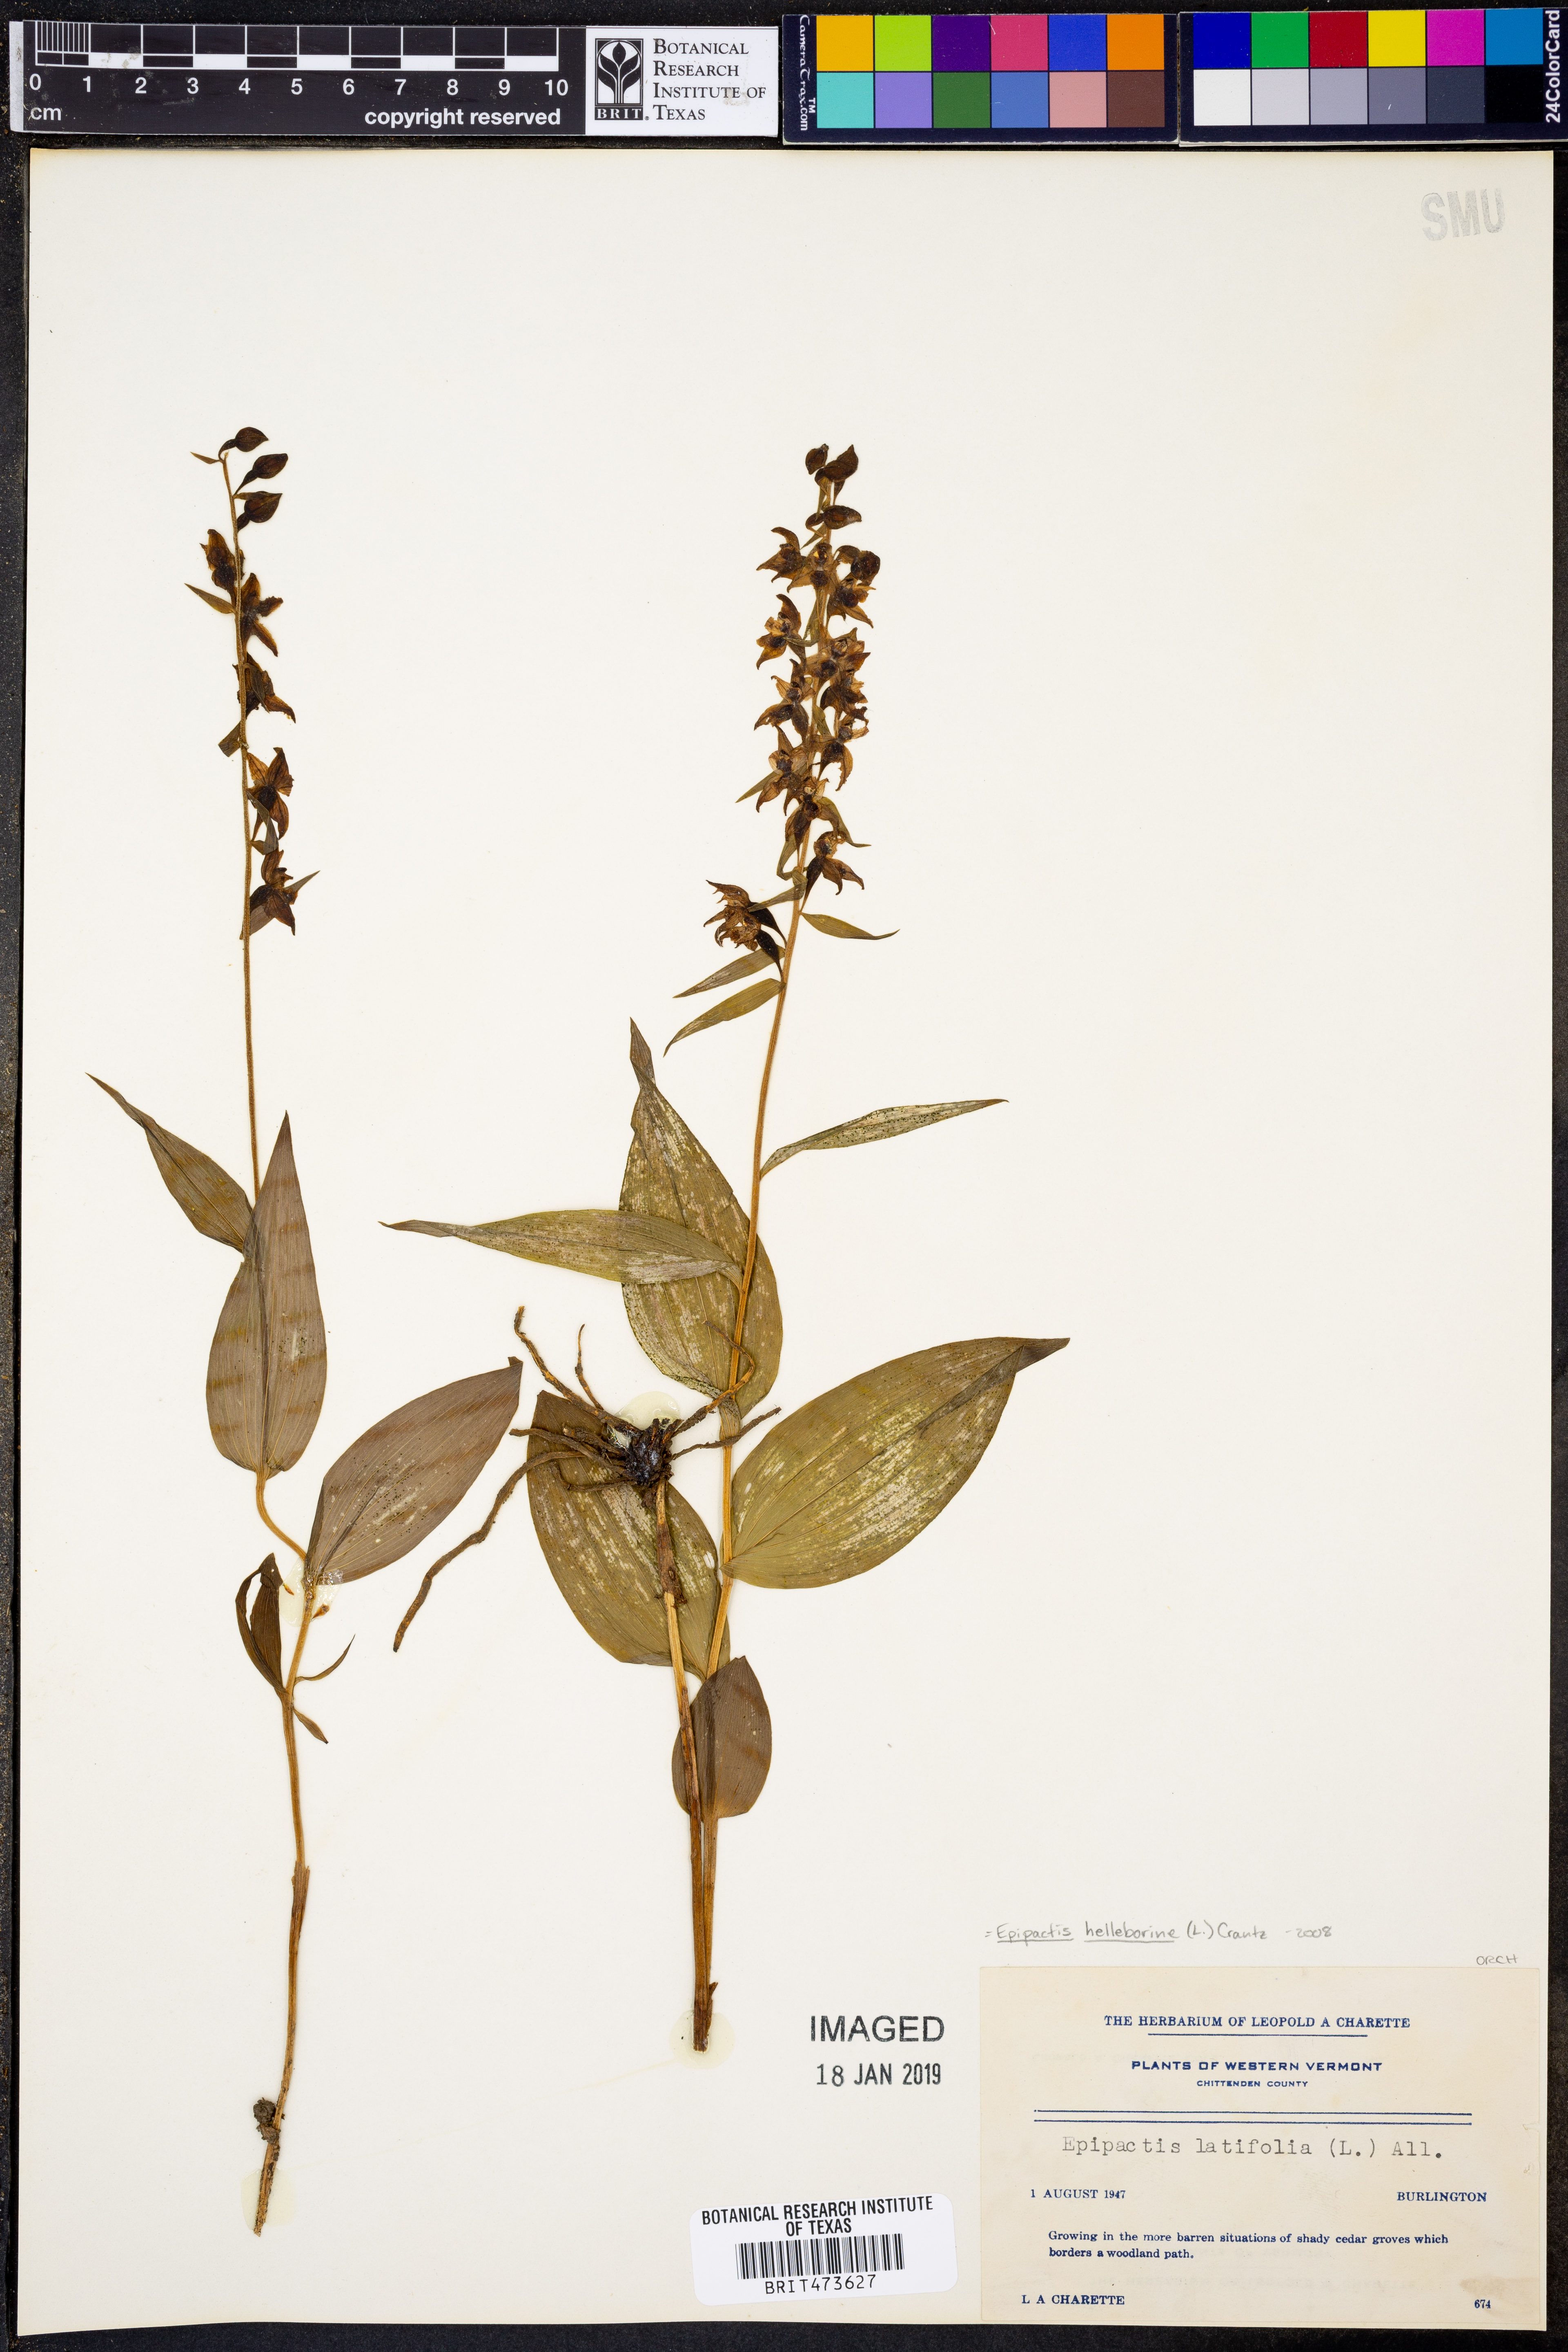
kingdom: Plantae
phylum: Tracheophyta
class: Liliopsida
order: Asparagales
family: Orchidaceae
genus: Epipactis
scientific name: Epipactis helleborine
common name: Broad-leaved helleborine
